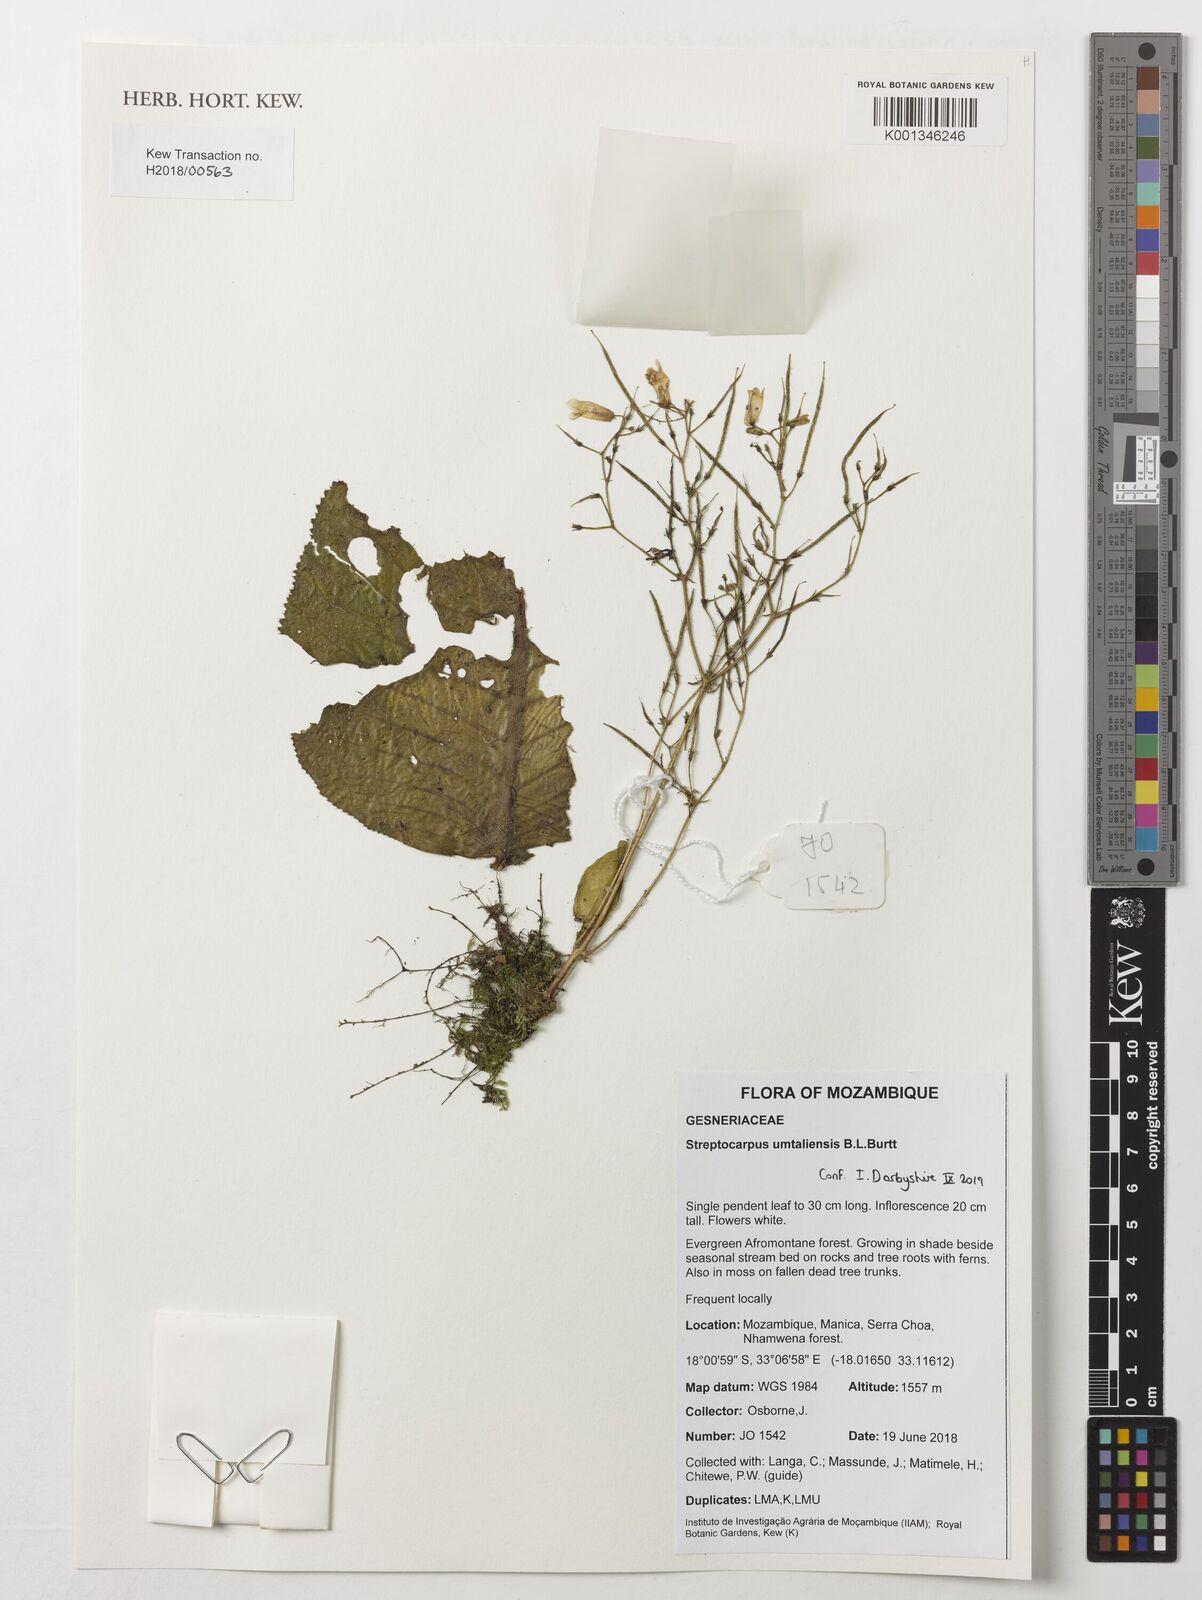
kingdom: Plantae
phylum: Tracheophyta
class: Magnoliopsida
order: Lamiales
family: Gesneriaceae
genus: Streptocarpus
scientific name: Streptocarpus umtaliensis
